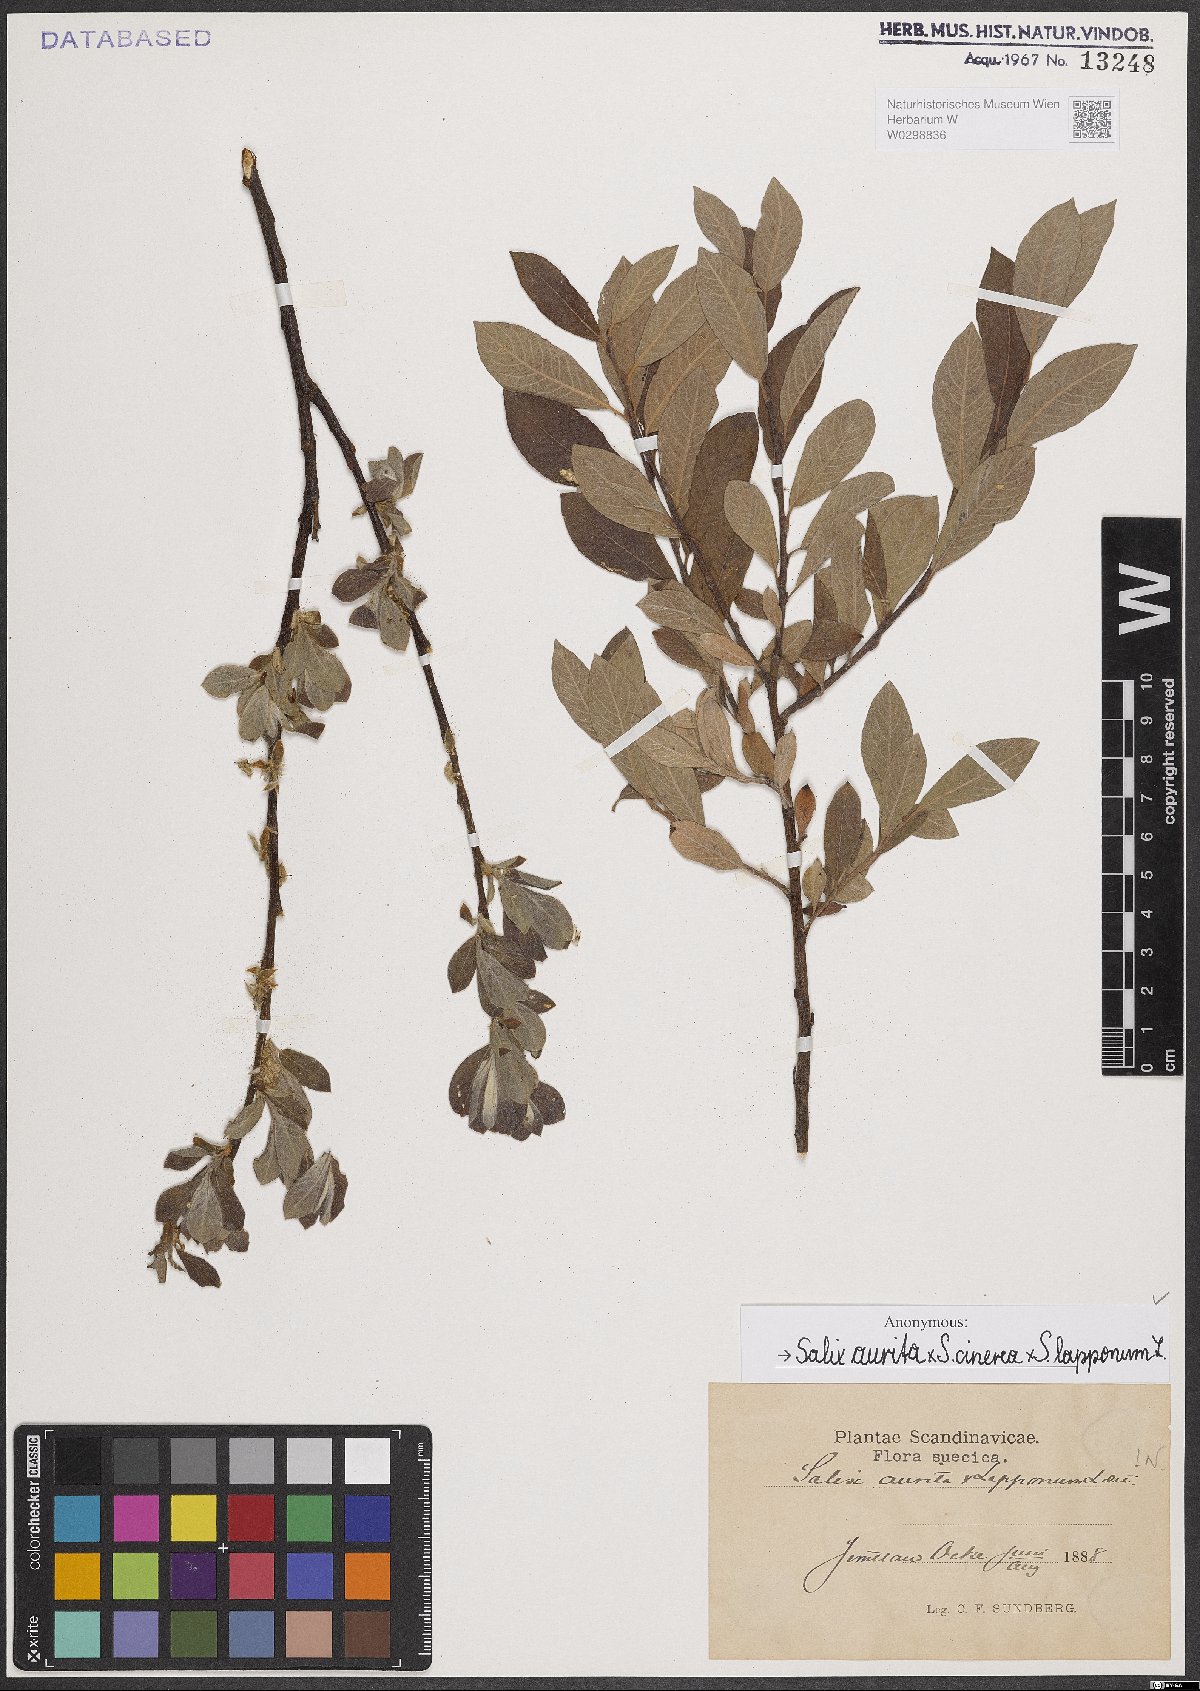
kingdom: Plantae
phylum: Tracheophyta
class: Magnoliopsida
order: Malpighiales
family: Salicaceae
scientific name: Salicaceae
